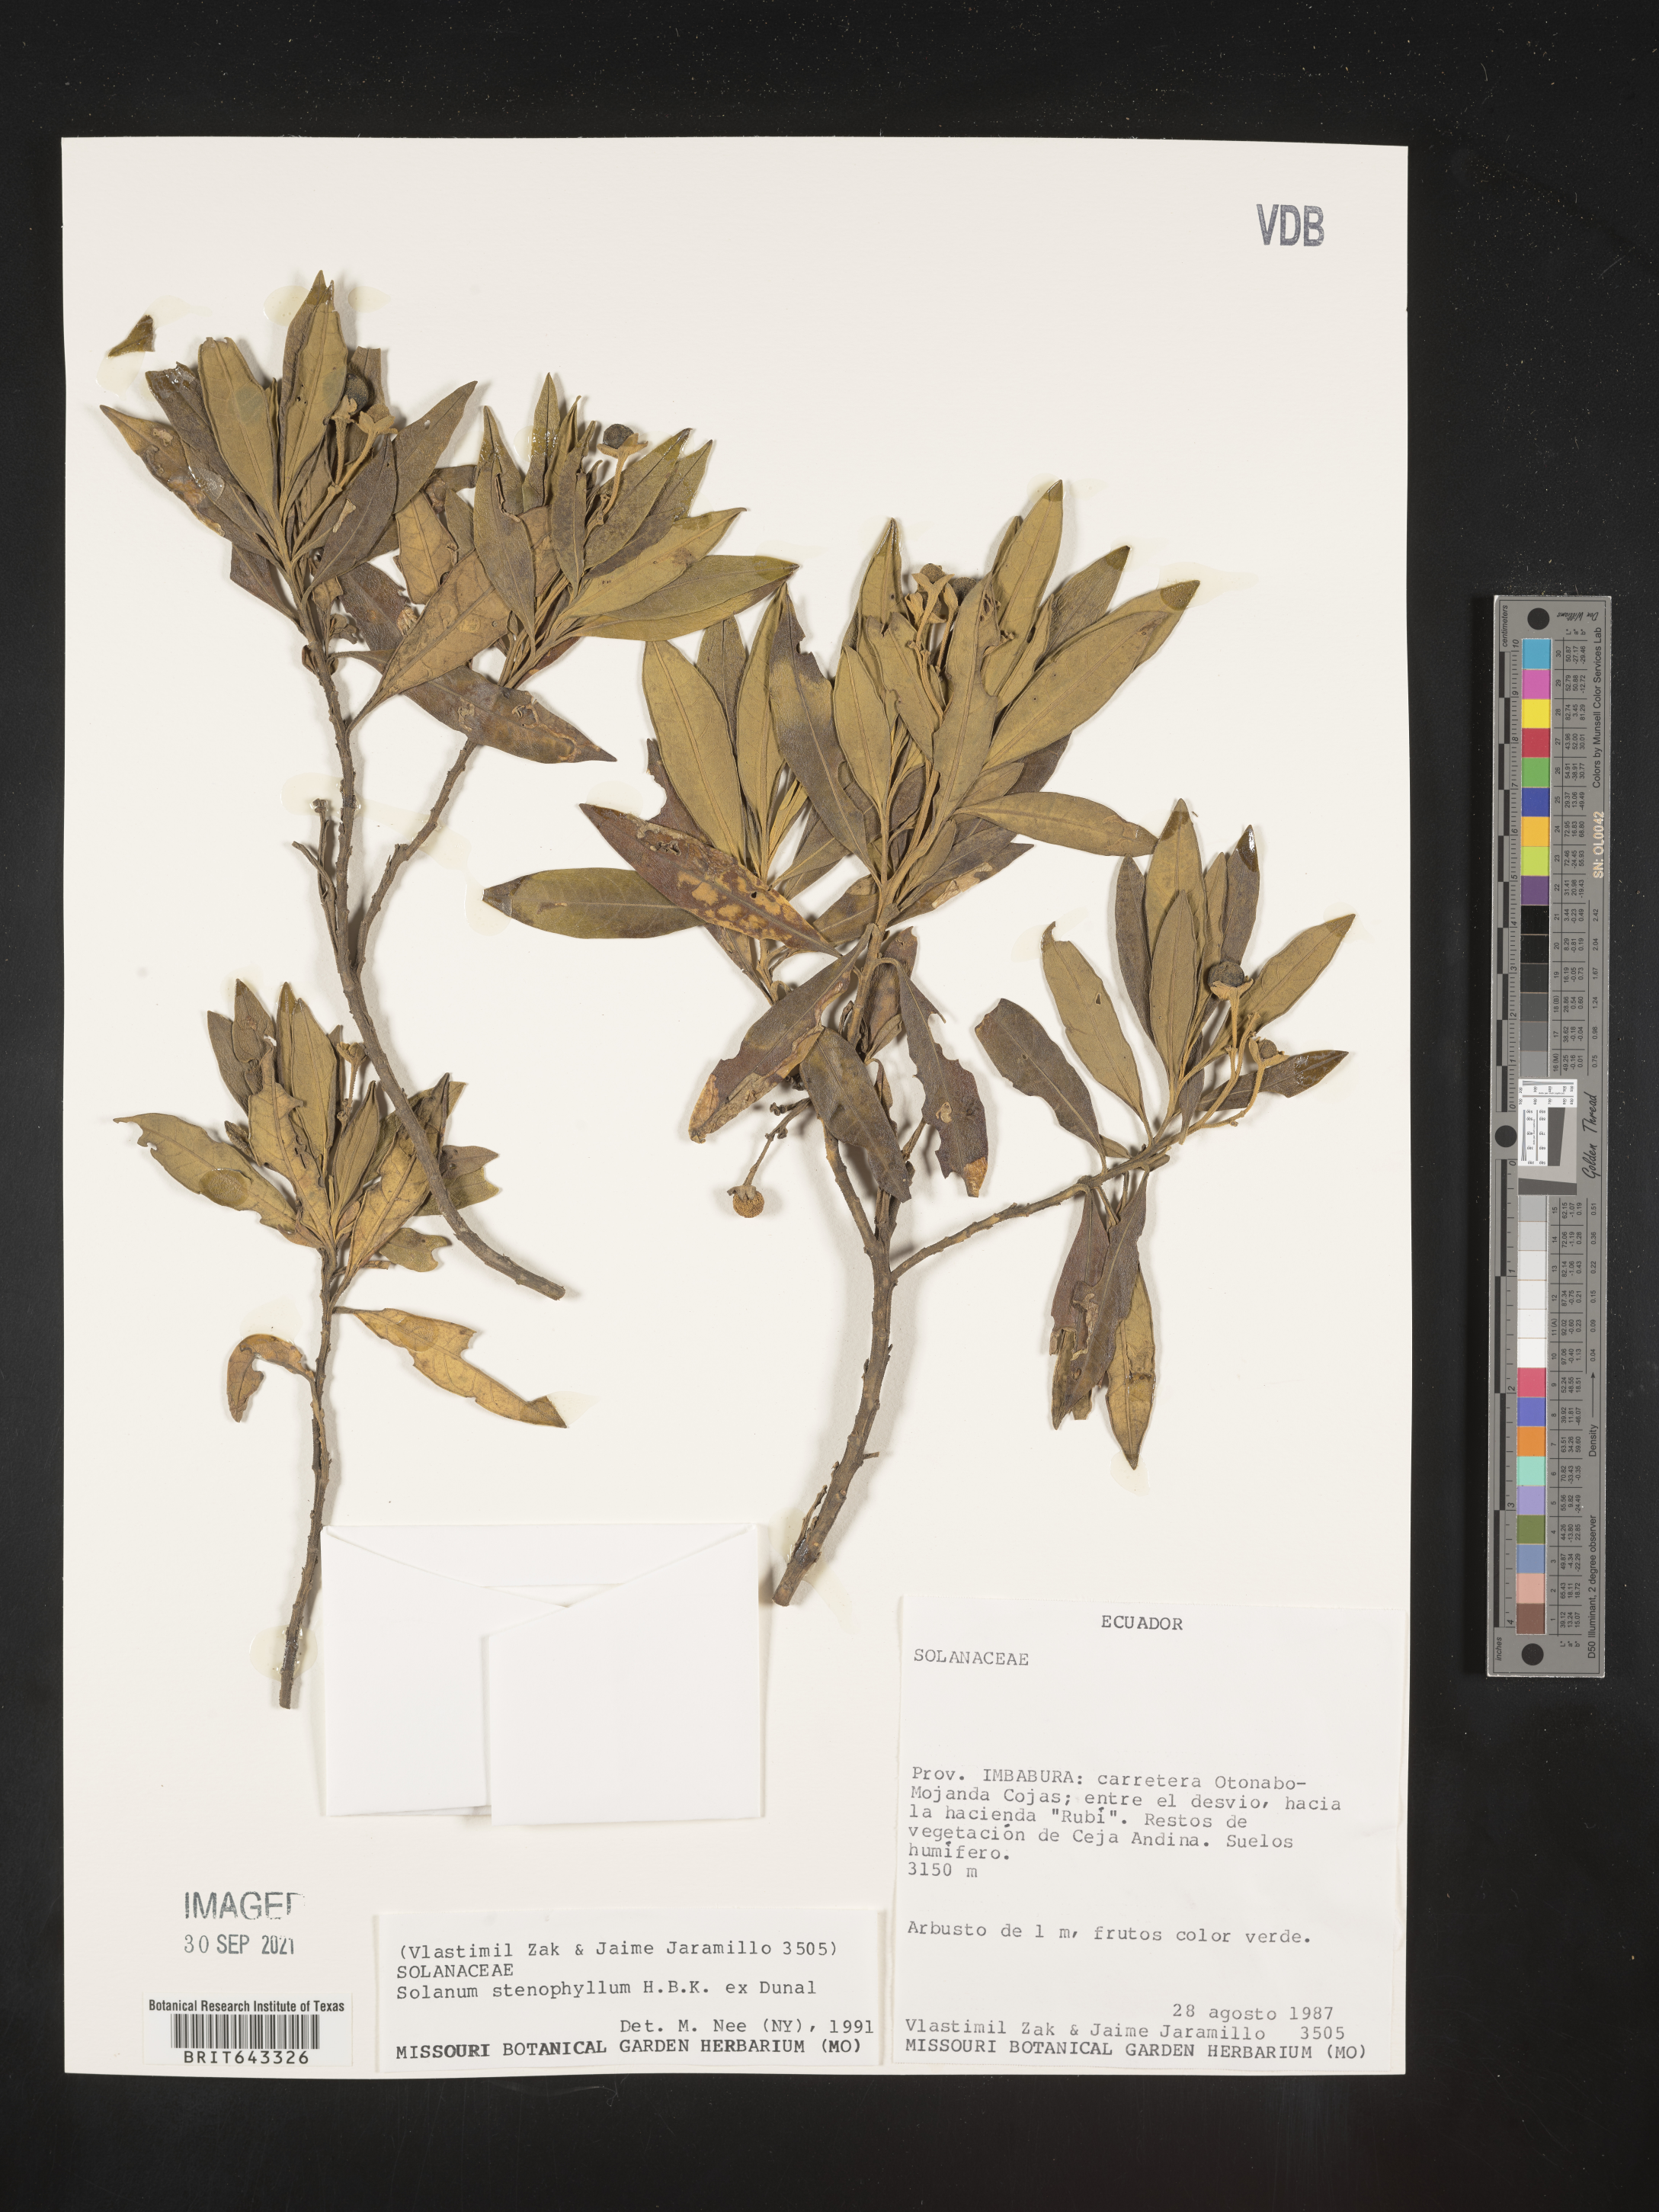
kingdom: Plantae
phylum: Tracheophyta
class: Magnoliopsida
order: Solanales
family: Solanaceae
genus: Solanum
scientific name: Solanum
